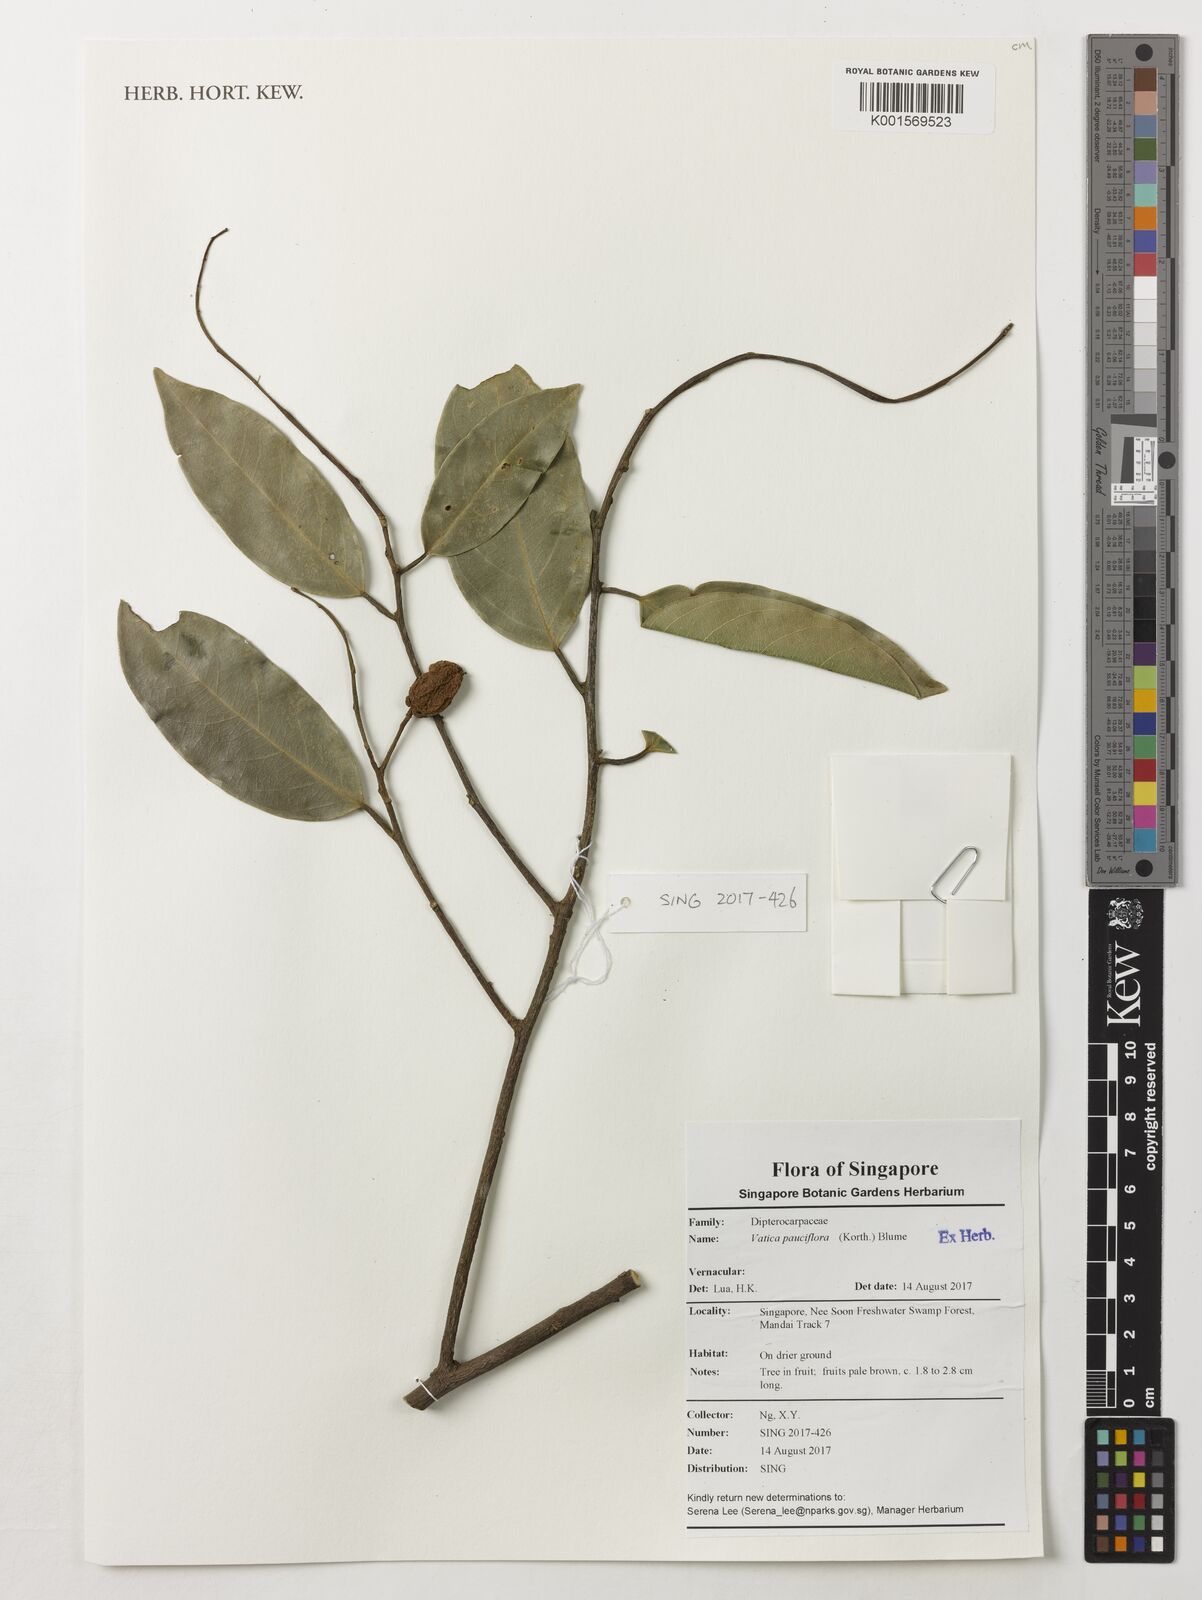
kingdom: Plantae
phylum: Tracheophyta
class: Magnoliopsida
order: Malvales
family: Dipterocarpaceae
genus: Vatica
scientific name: Vatica pauciflora
